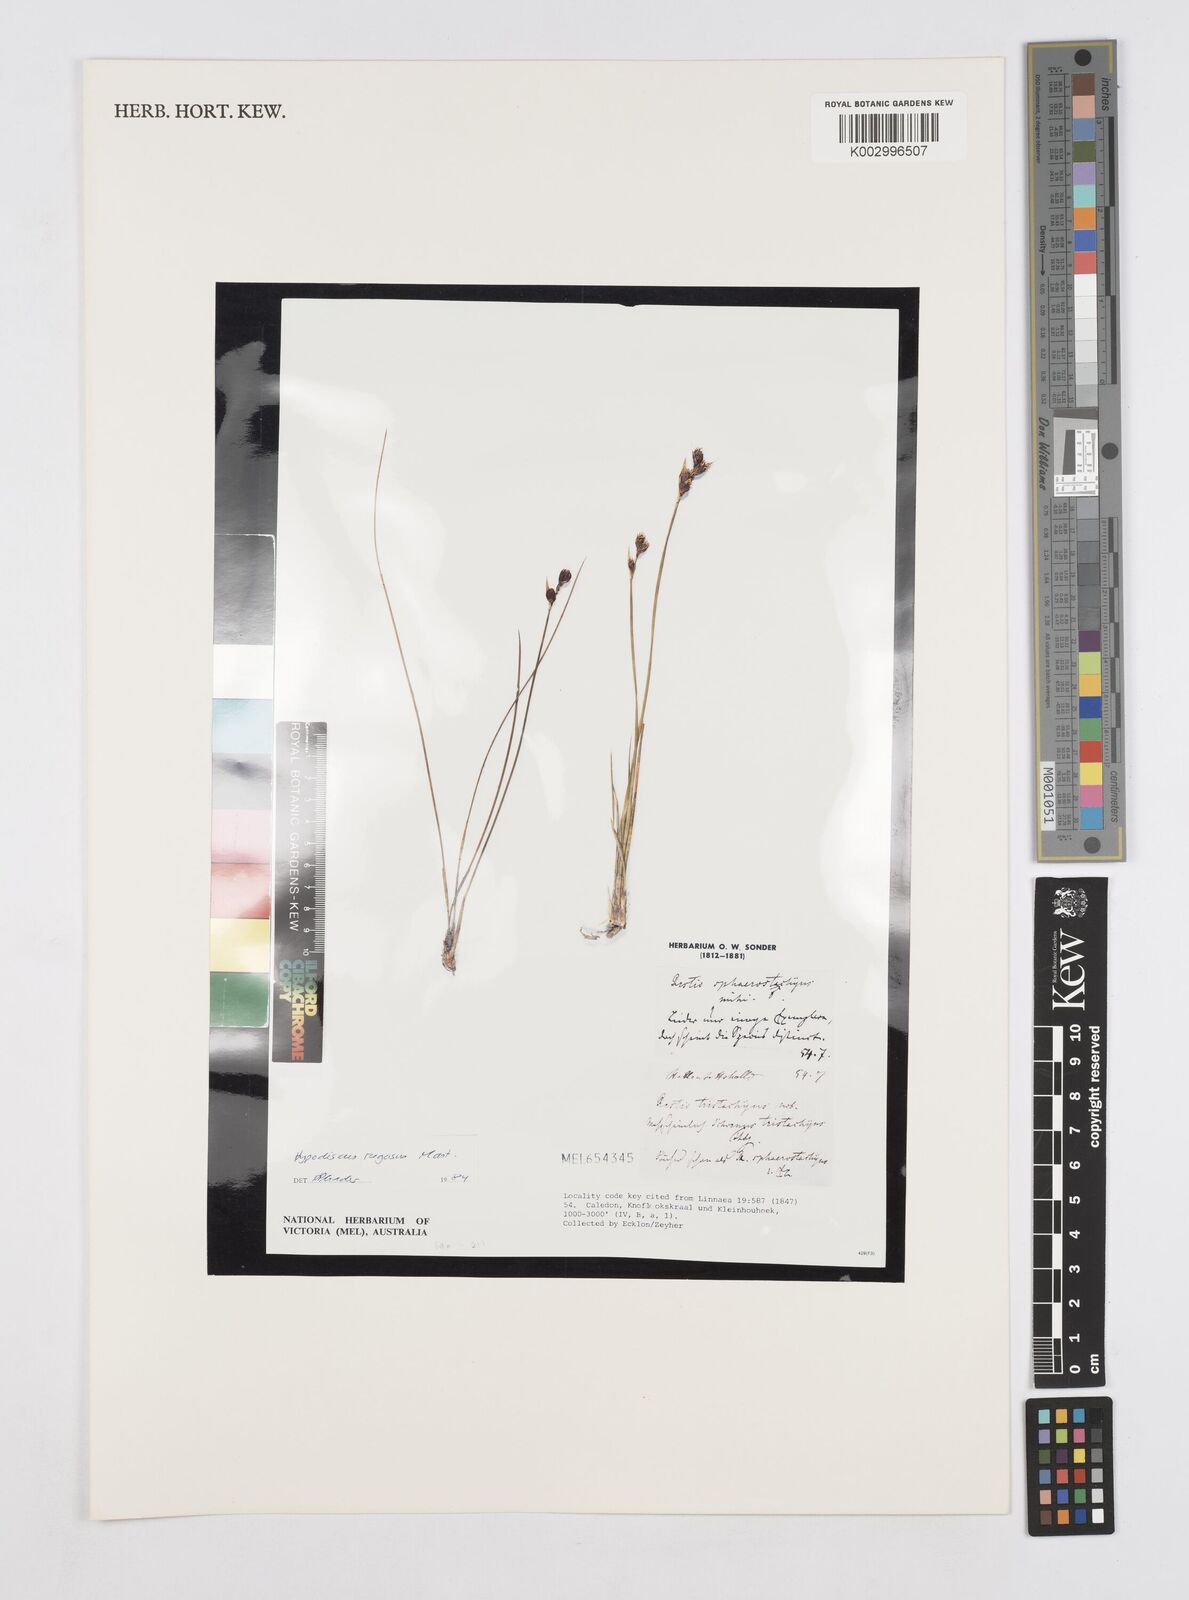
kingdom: Plantae
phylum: Tracheophyta
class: Liliopsida
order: Poales
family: Restionaceae
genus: Hypodiscus
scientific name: Hypodiscus rugosus
